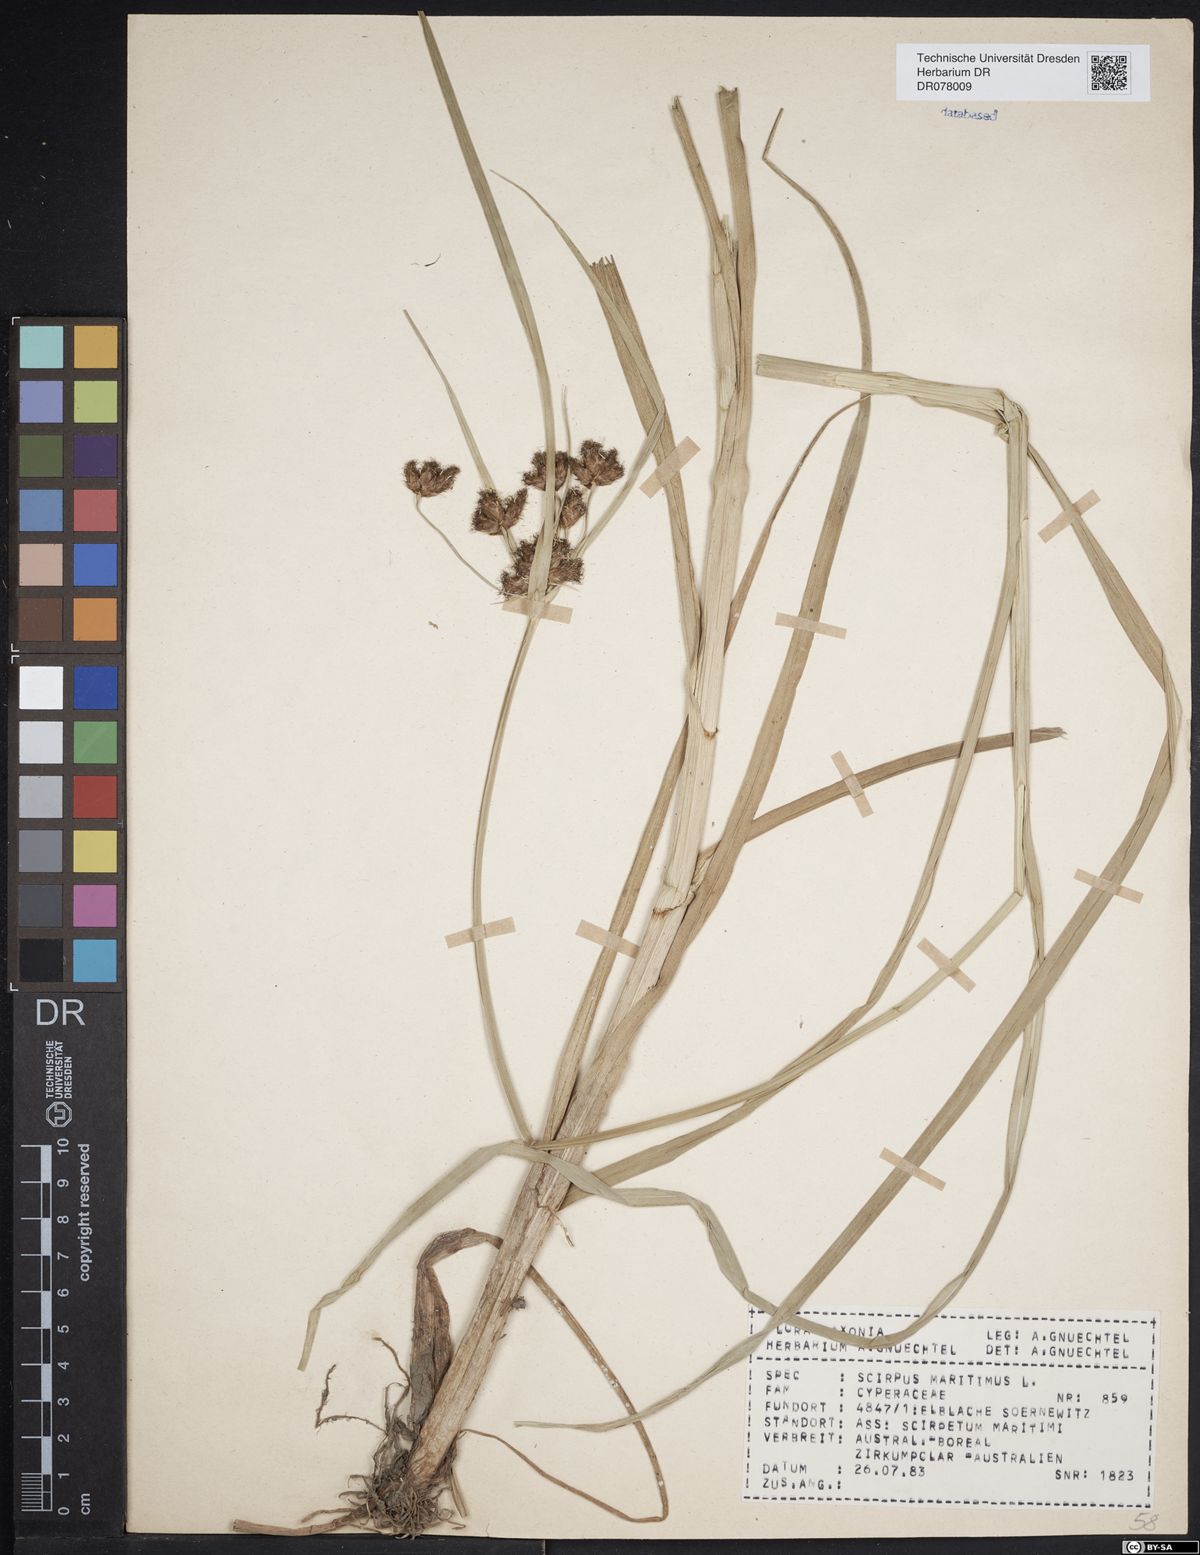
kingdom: Plantae
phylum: Tracheophyta
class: Liliopsida
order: Poales
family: Cyperaceae
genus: Bolboschoenus
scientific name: Bolboschoenus maritimus
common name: Sea club-rush
